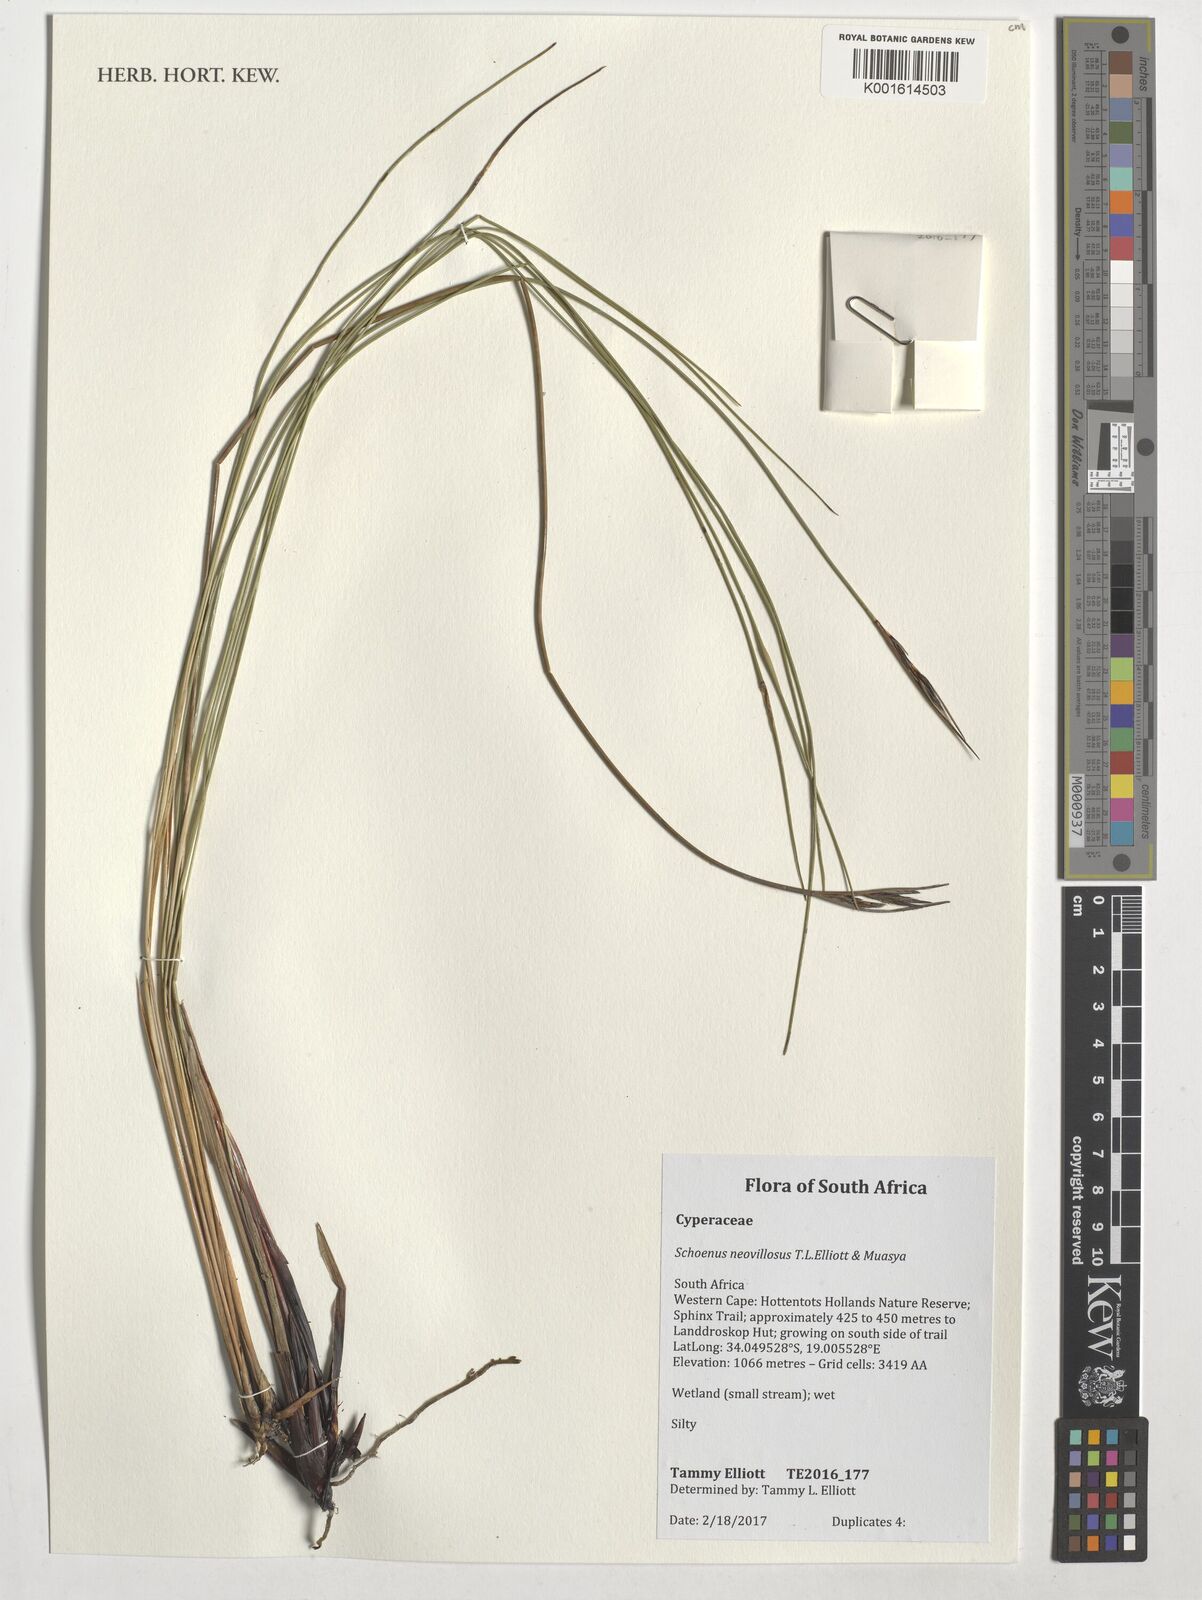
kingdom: Plantae
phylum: Tracheophyta
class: Liliopsida
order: Poales
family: Cyperaceae
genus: Schoenus
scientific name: Schoenus neovillosus
